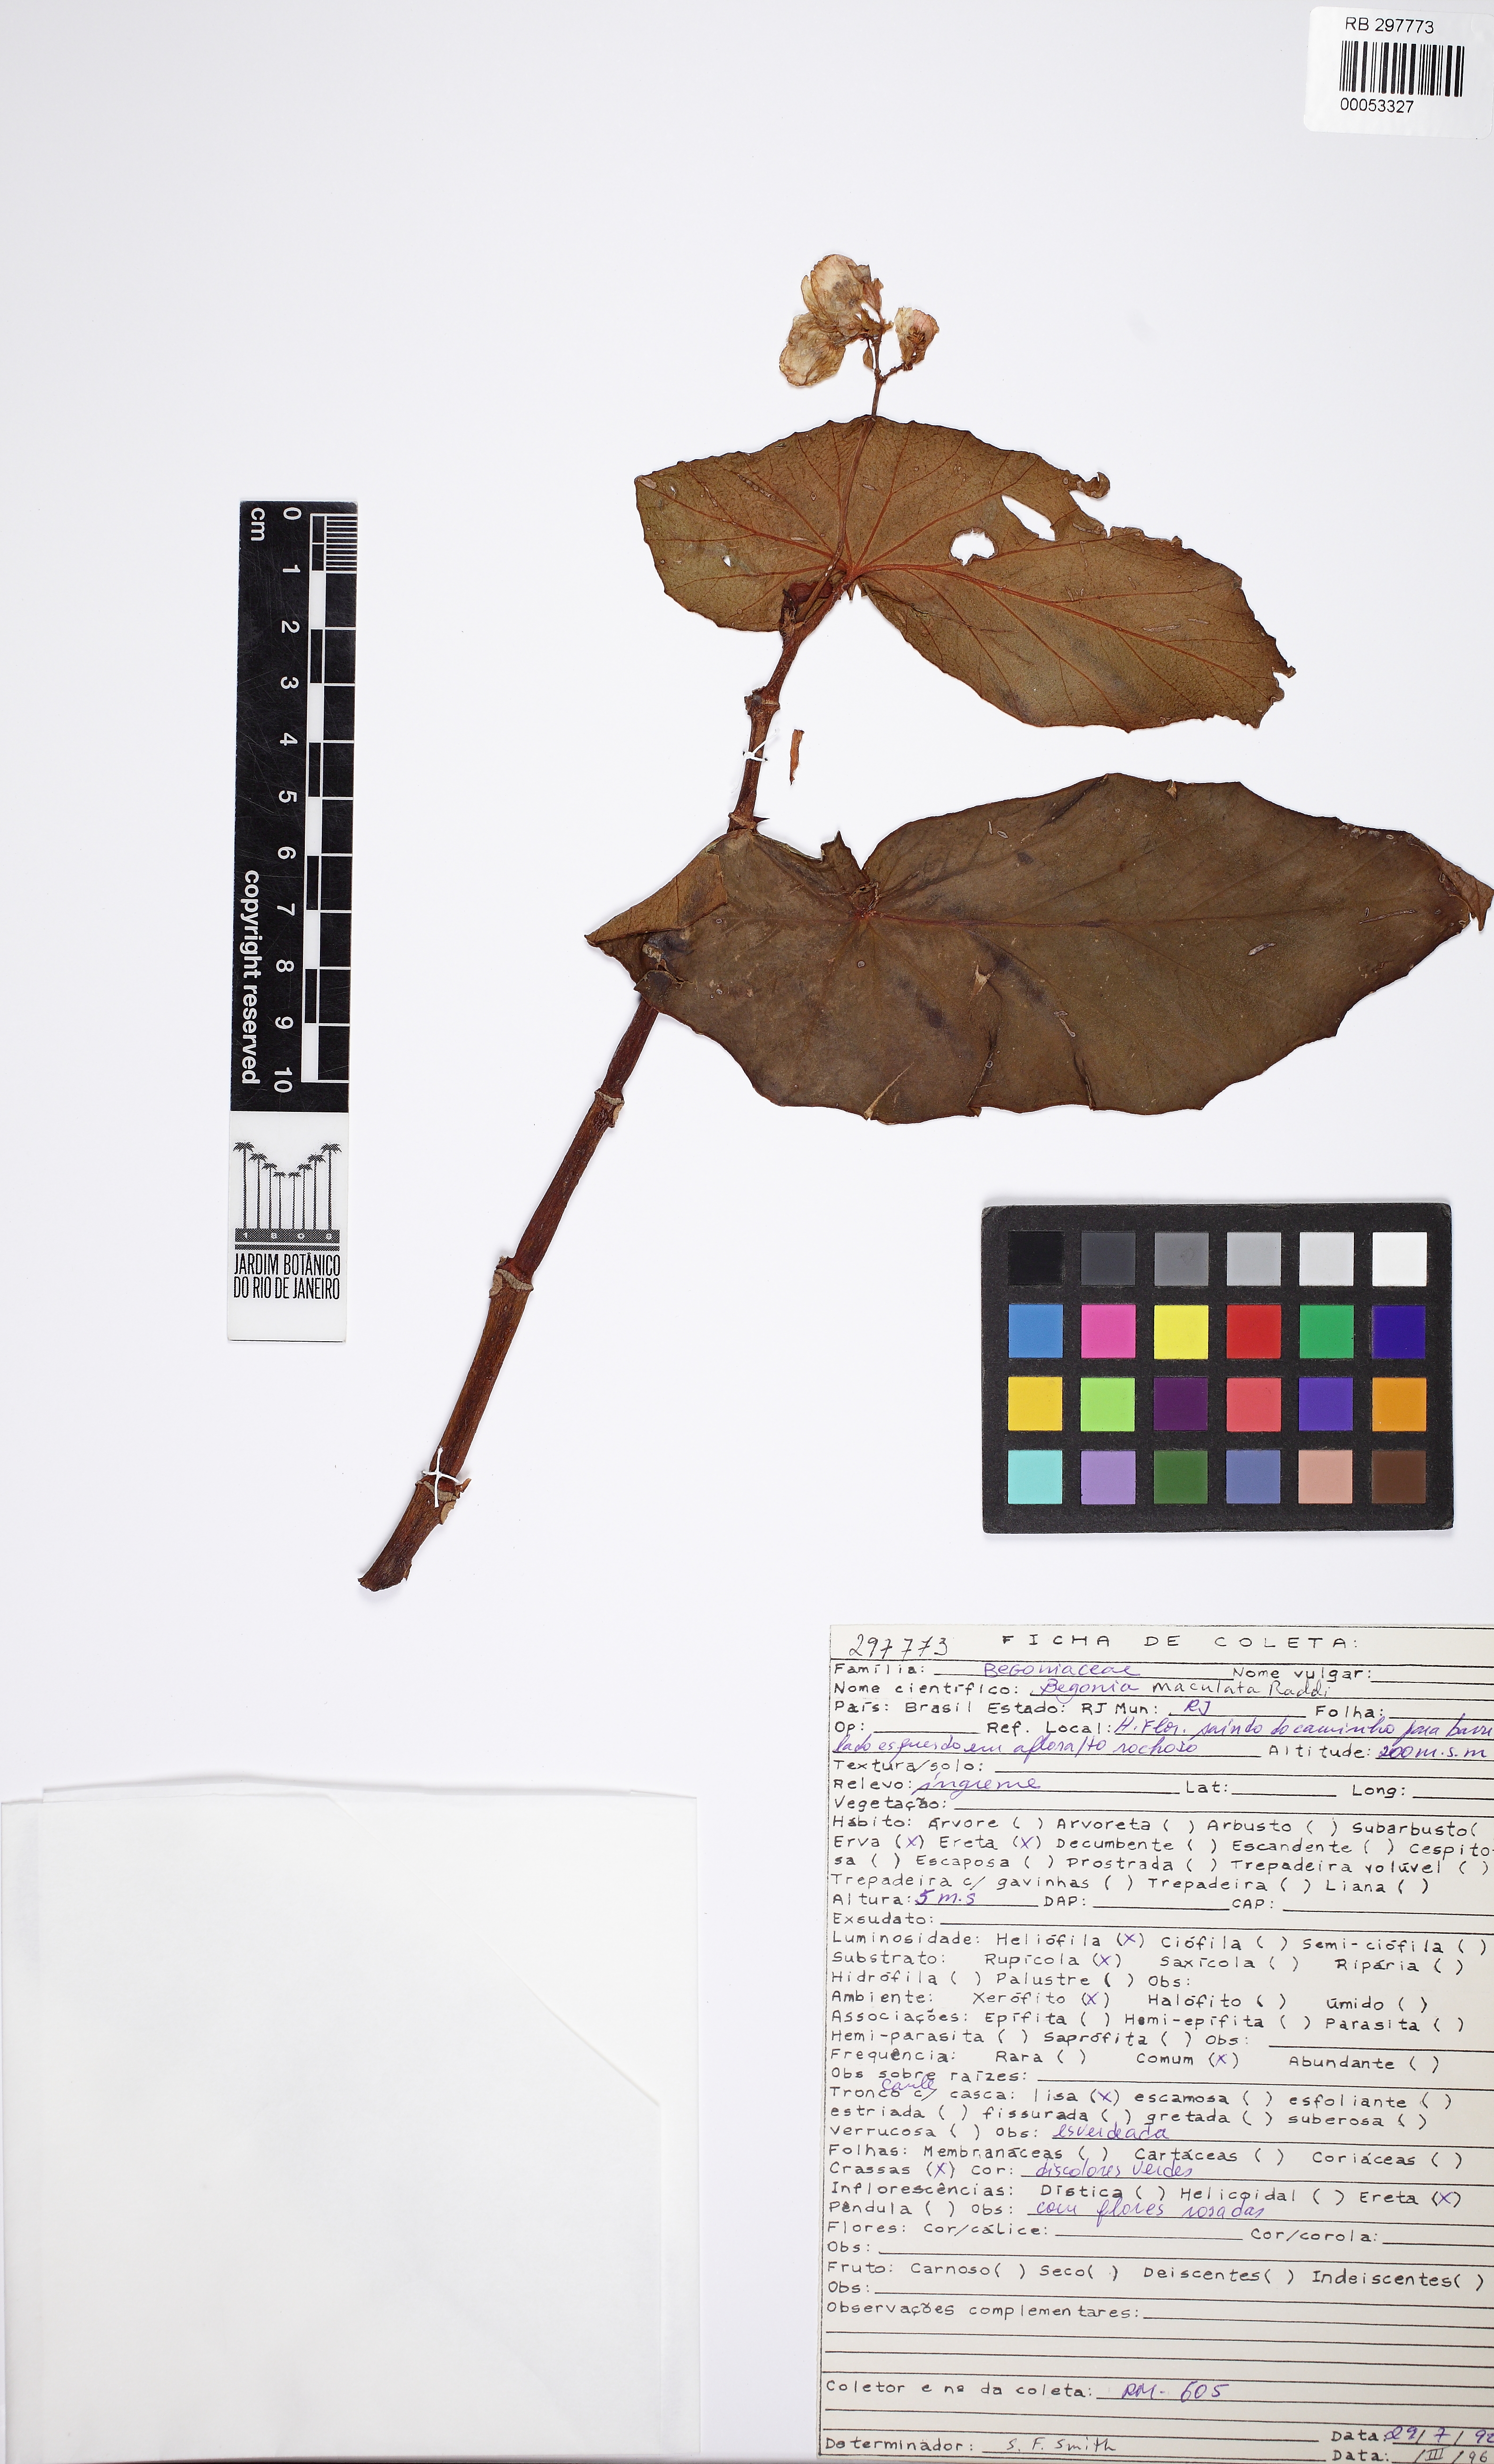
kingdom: Plantae
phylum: Tracheophyta
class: Magnoliopsida
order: Cucurbitales
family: Begoniaceae
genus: Begonia
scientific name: Begonia maculata
